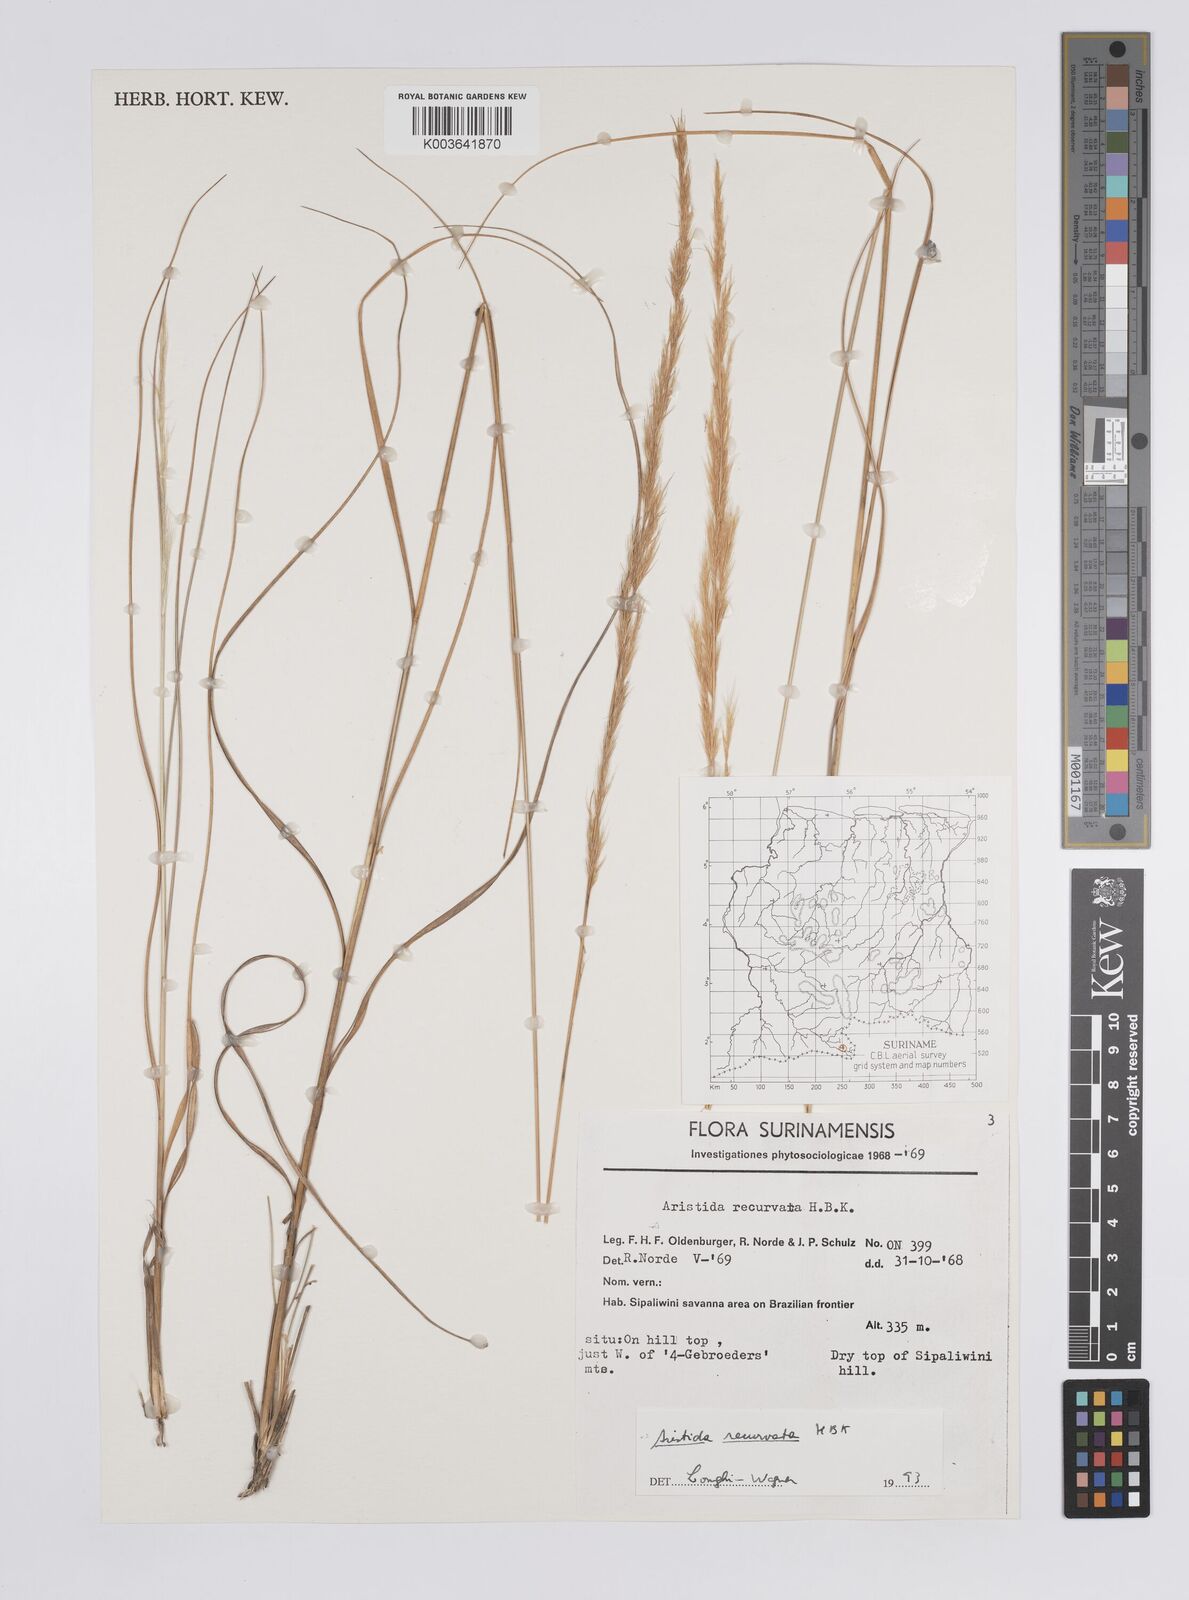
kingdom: Plantae
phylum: Tracheophyta
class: Liliopsida
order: Poales
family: Poaceae
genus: Aristida
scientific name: Aristida recurvata
